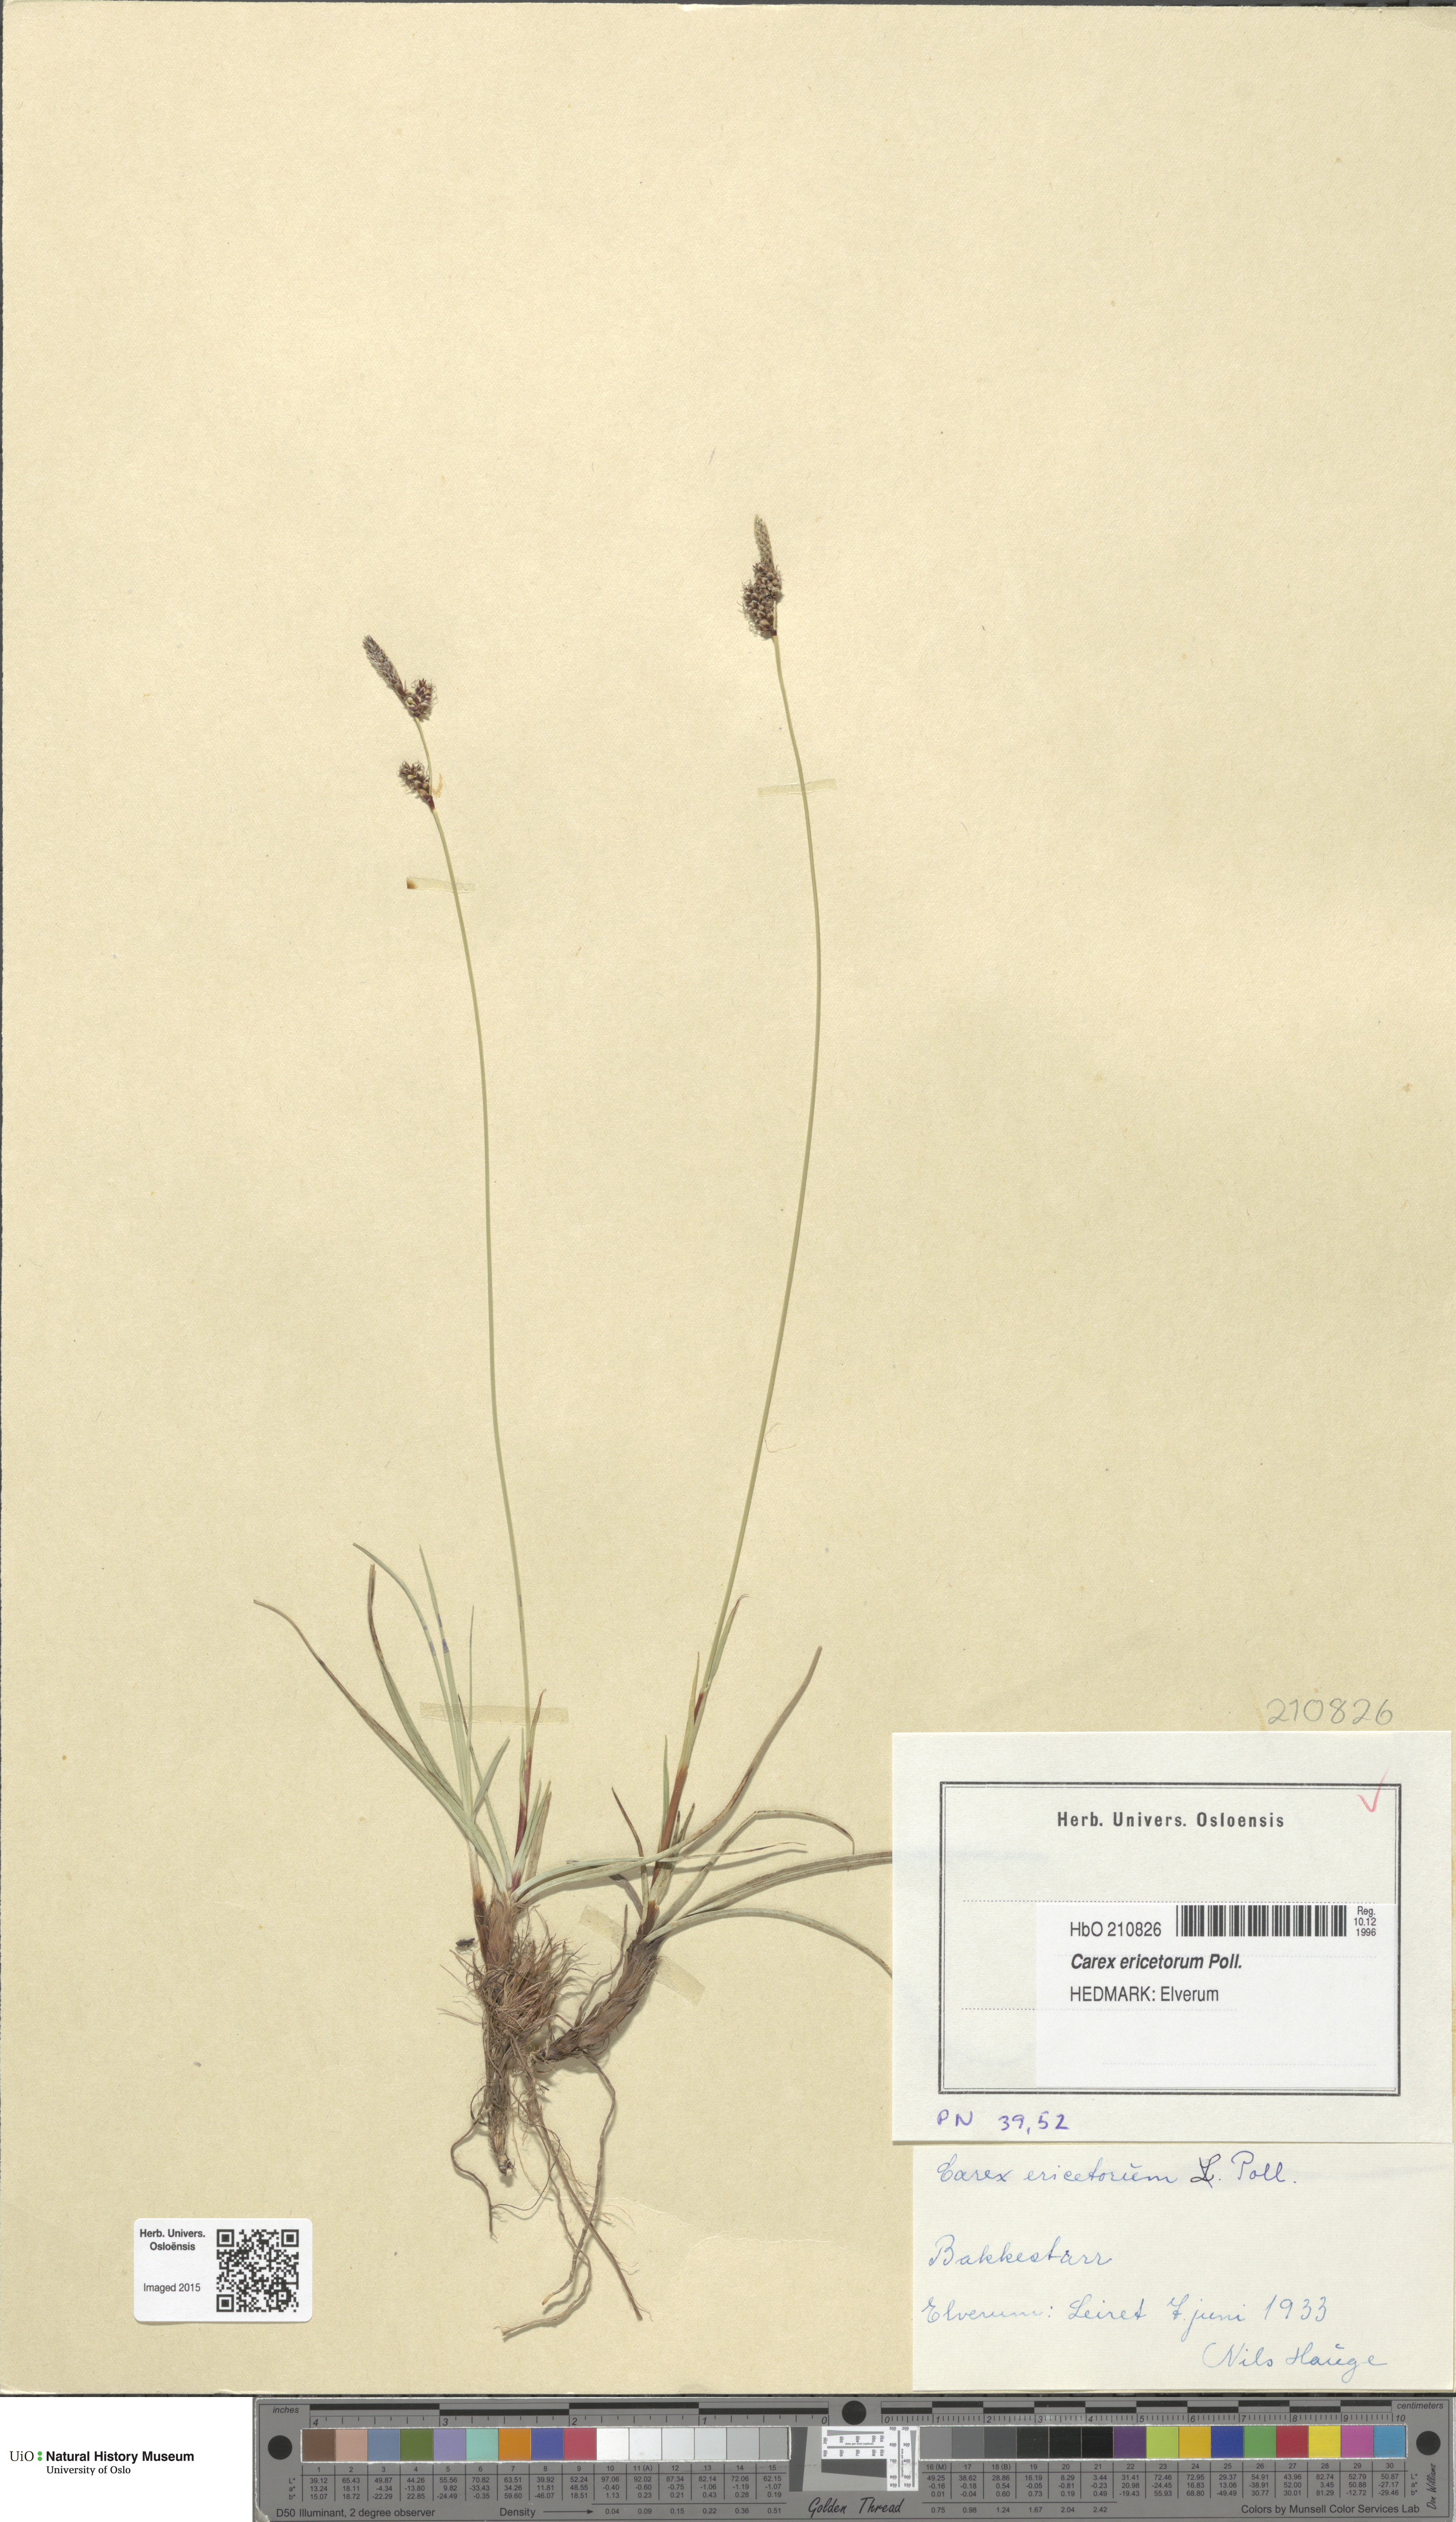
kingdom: Plantae
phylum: Tracheophyta
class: Liliopsida
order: Poales
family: Cyperaceae
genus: Carex
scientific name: Carex ericetorum
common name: Rare spring-sedge
